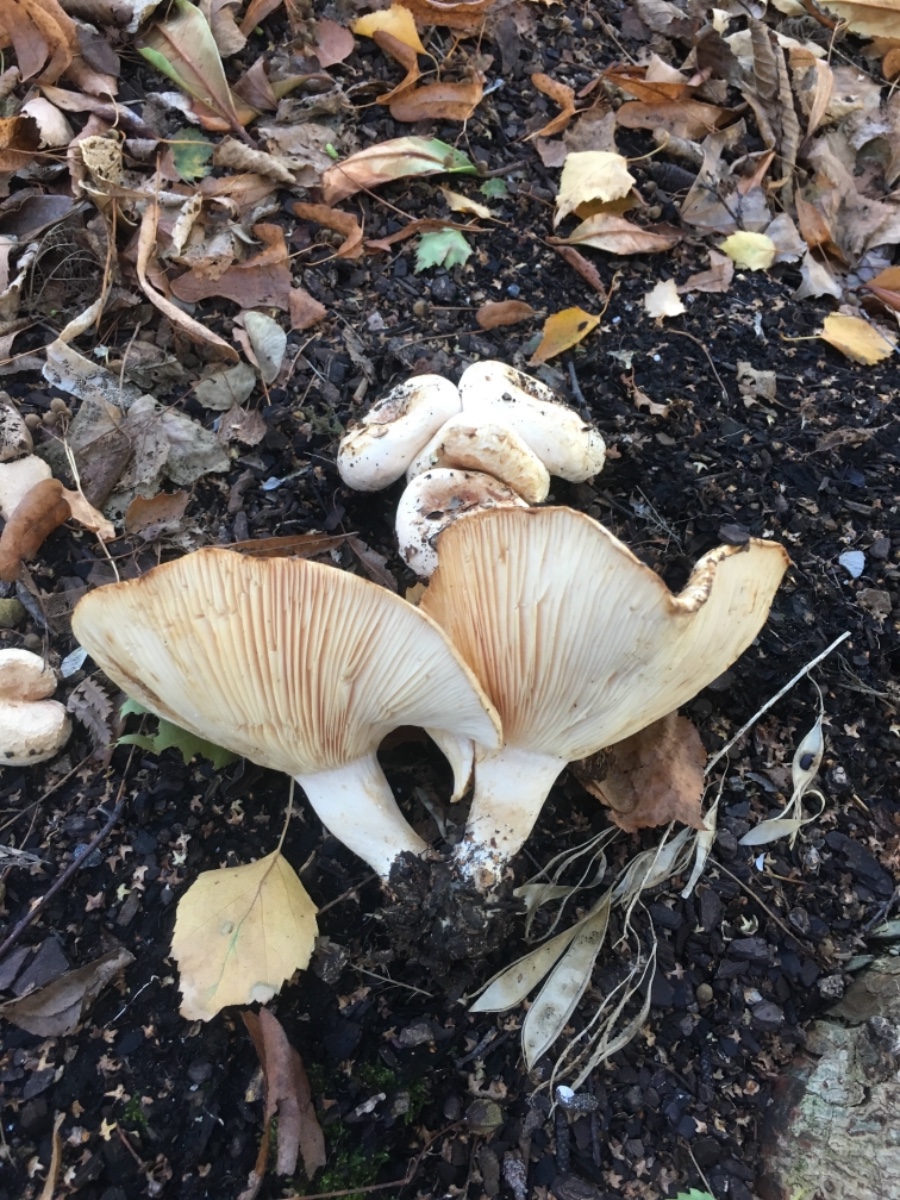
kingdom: Fungi
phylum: Basidiomycota
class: Agaricomycetes
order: Russulales
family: Russulaceae
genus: Lactarius
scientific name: Lactarius pubescens
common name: dunet mælkehat
